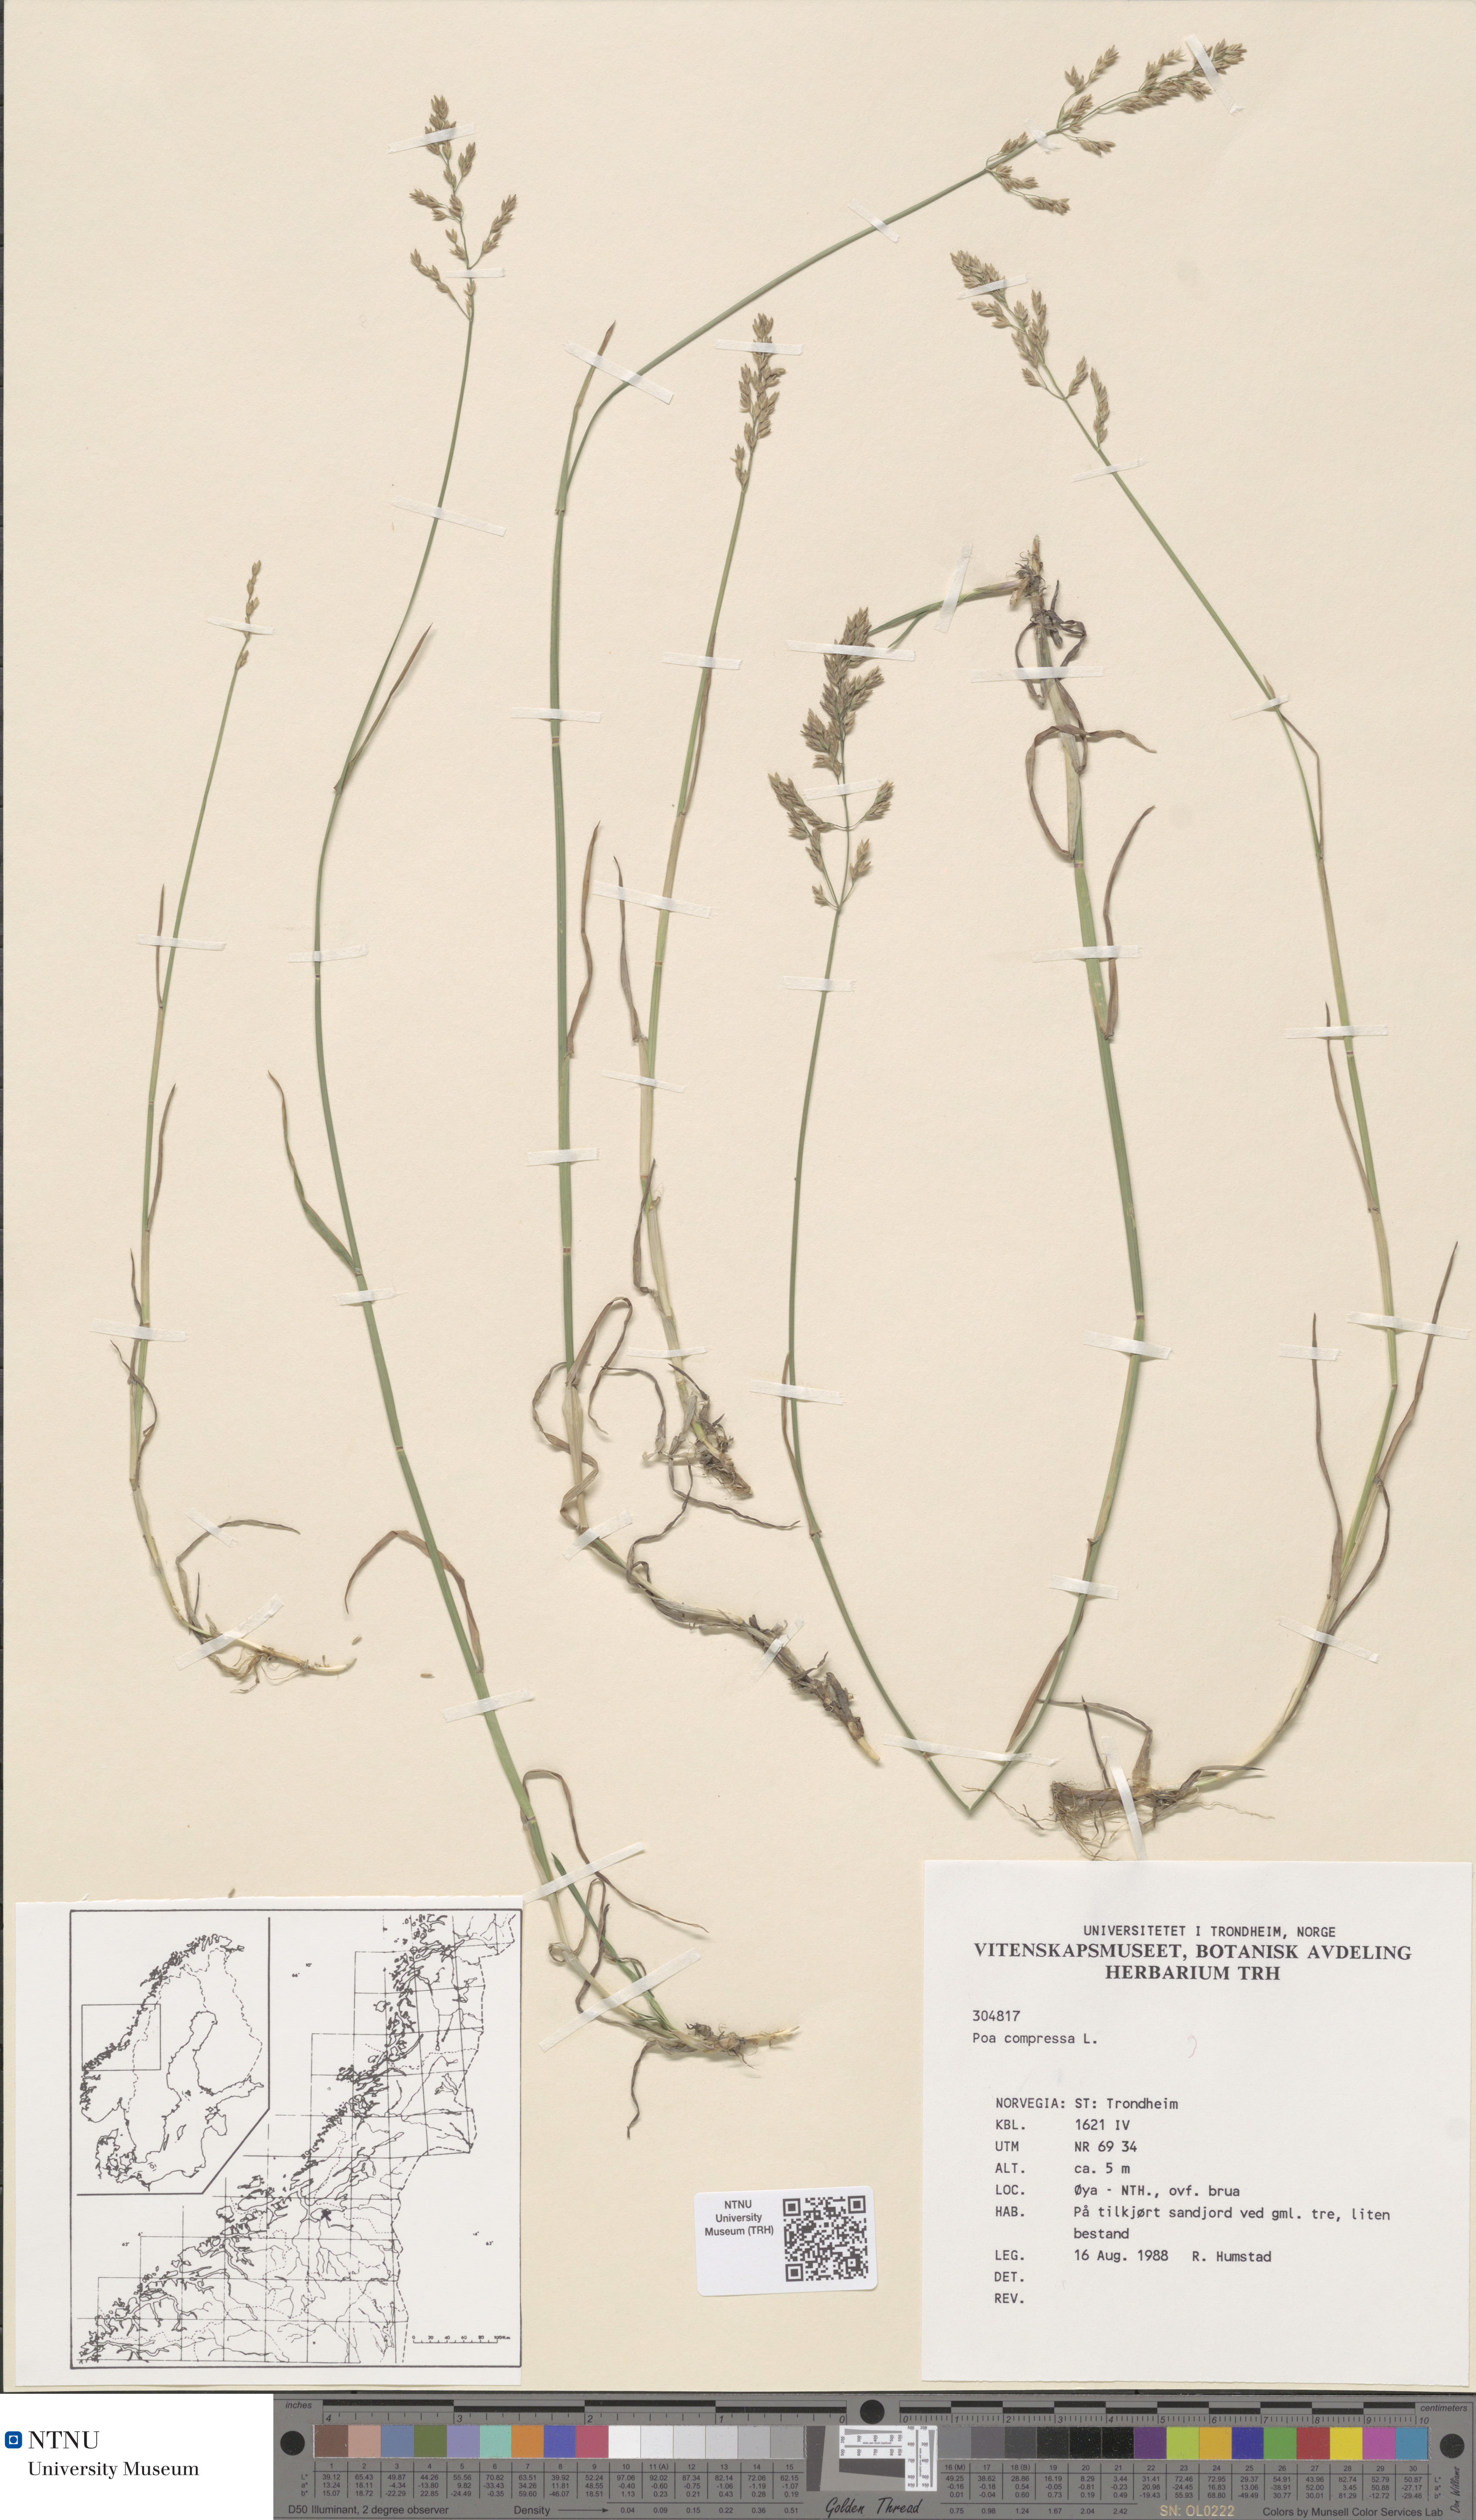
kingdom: Plantae
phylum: Tracheophyta
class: Liliopsida
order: Poales
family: Poaceae
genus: Poa
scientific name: Poa compressa
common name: Canada bluegrass
